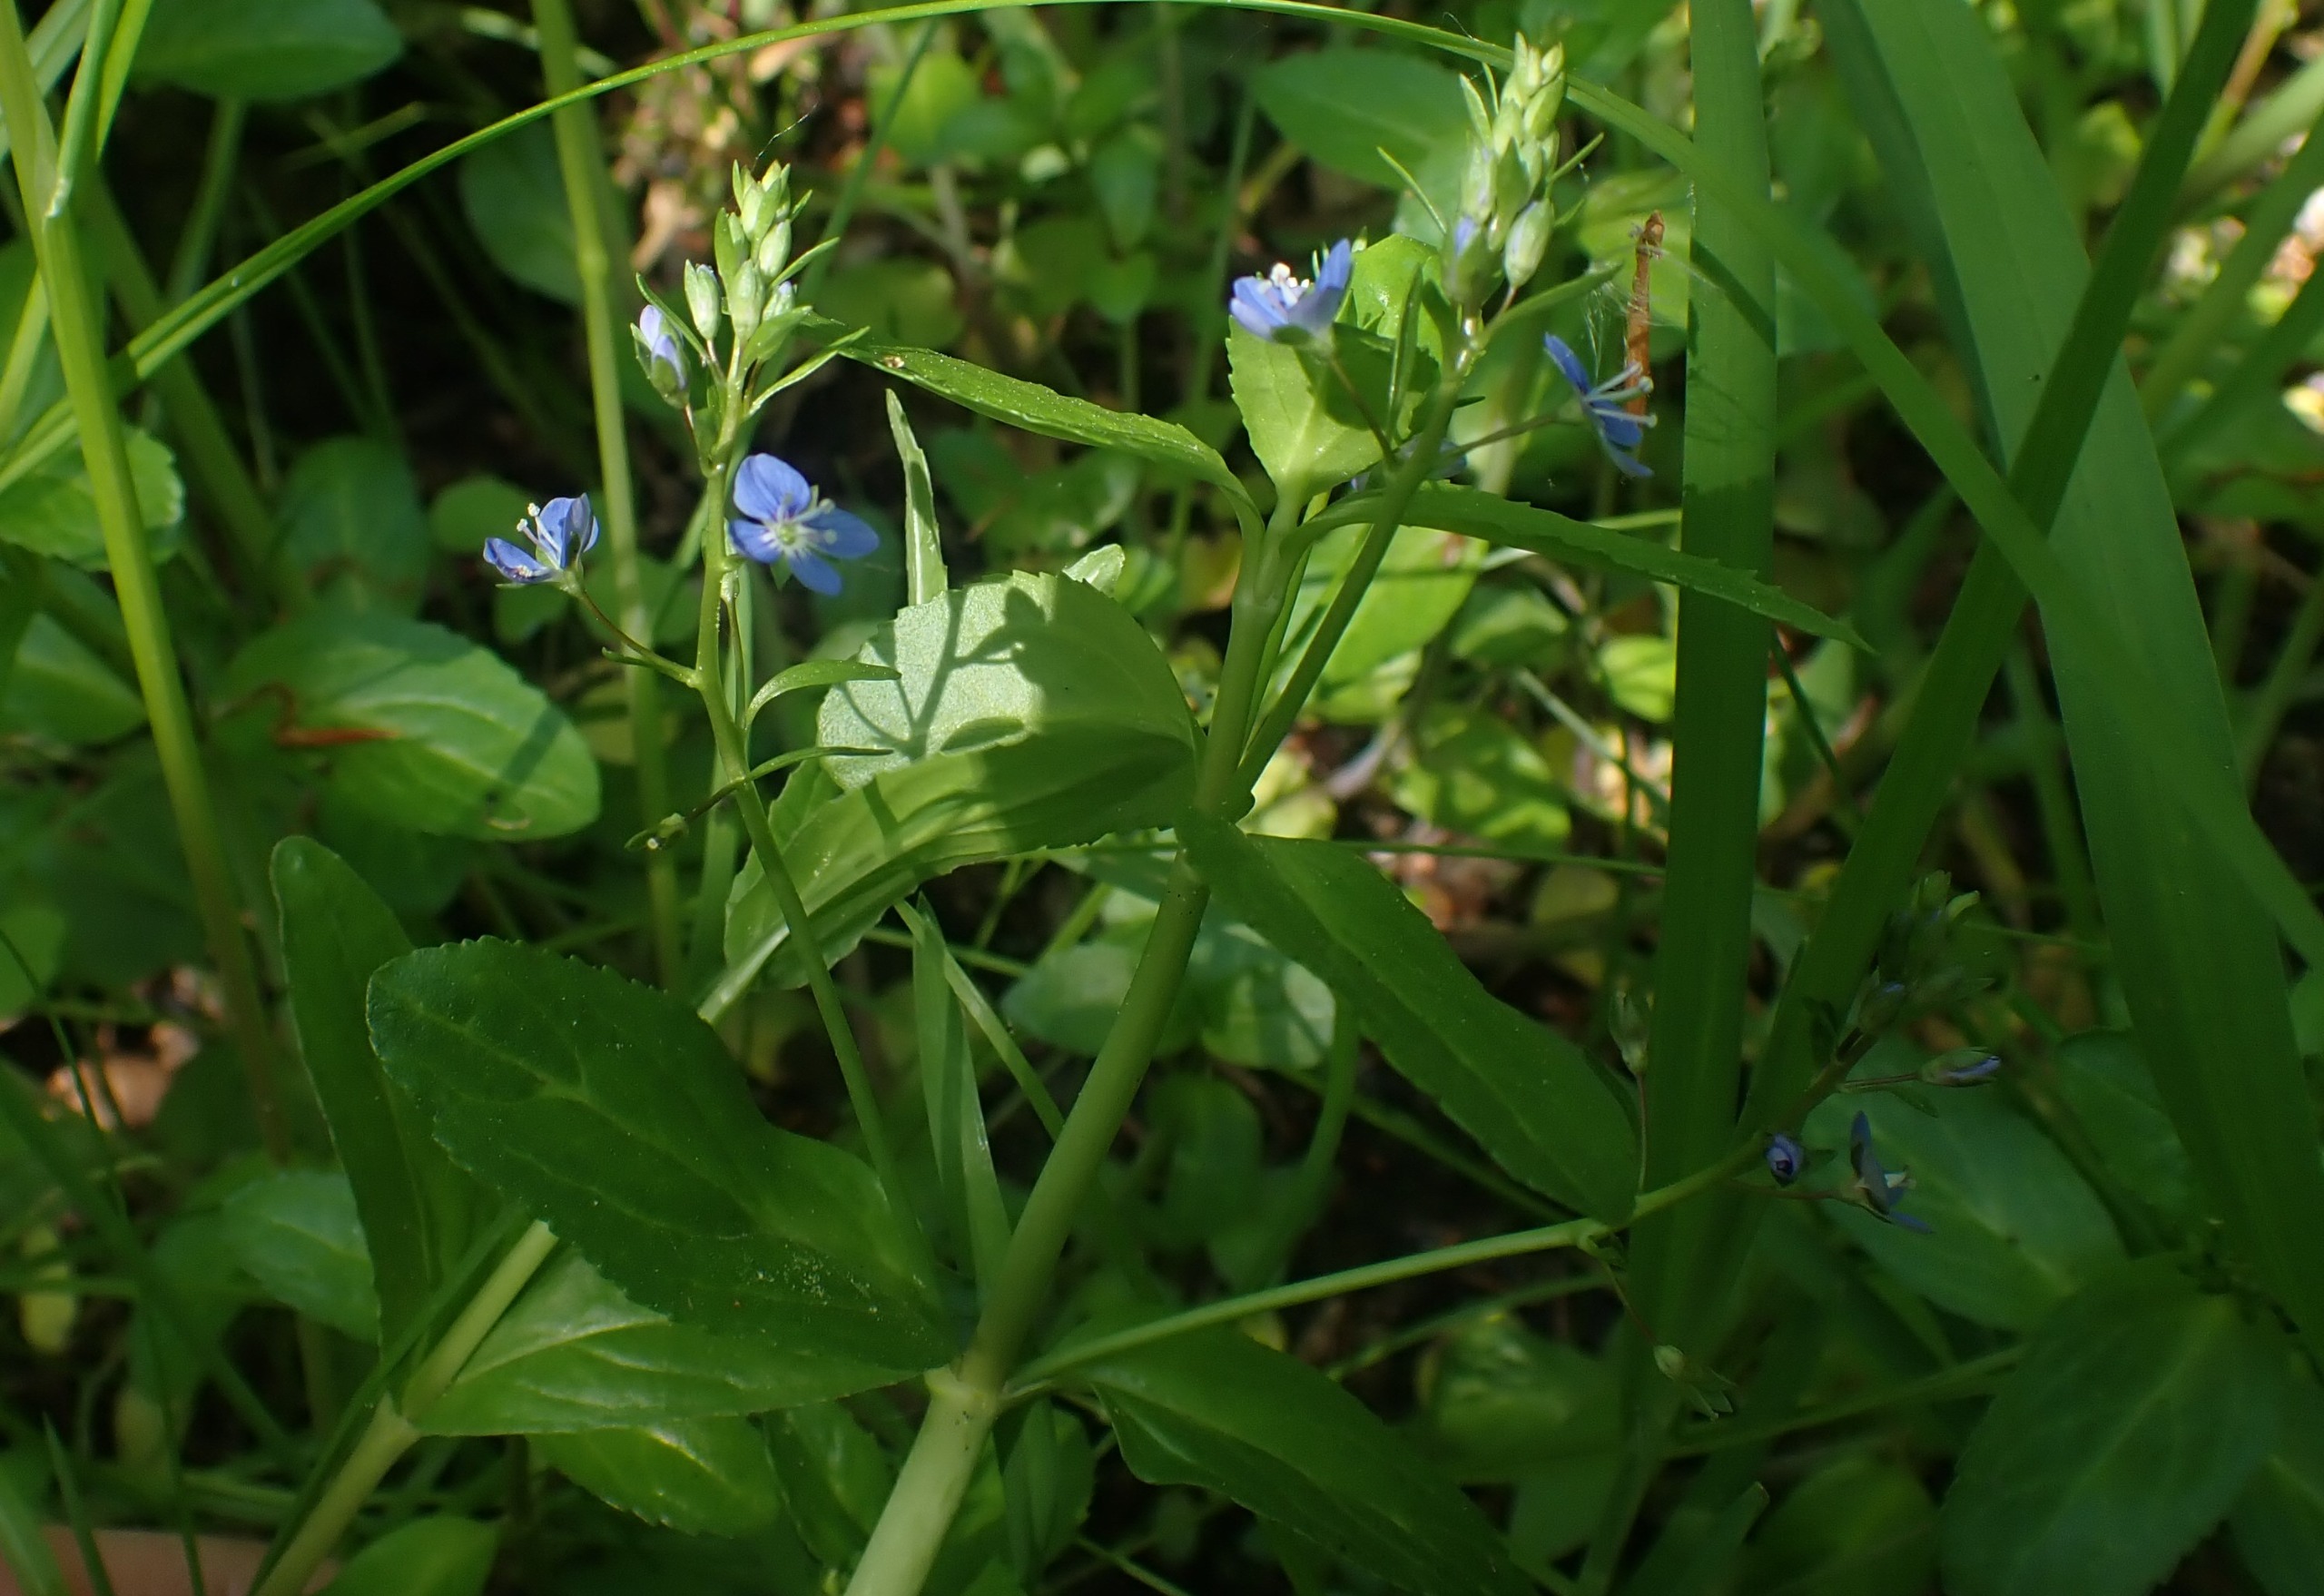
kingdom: Plantae
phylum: Tracheophyta
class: Magnoliopsida
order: Lamiales
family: Plantaginaceae
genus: Veronica
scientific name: Veronica beccabunga
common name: Tykbladet ærenpris
